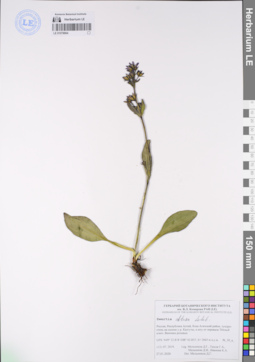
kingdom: Plantae
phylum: Tracheophyta
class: Magnoliopsida
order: Gentianales
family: Gentianaceae
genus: Swertia
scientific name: Swertia obtusa
